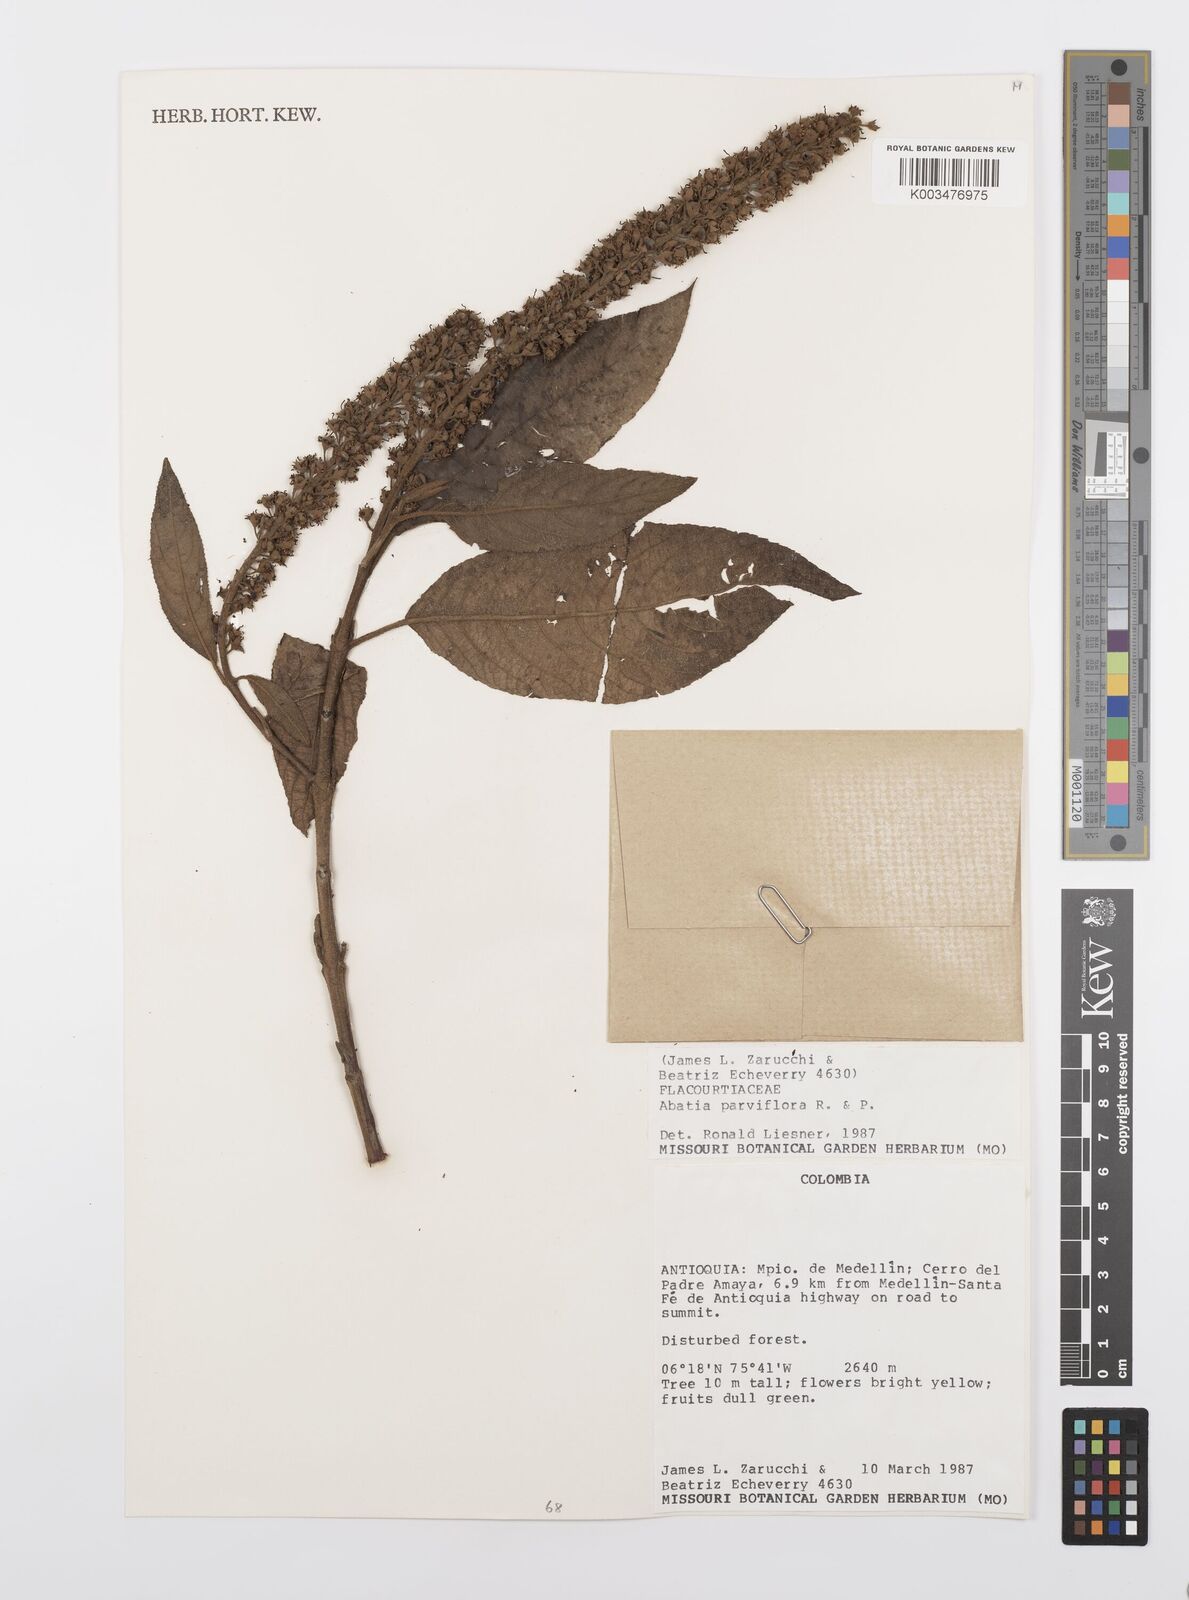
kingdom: Plantae
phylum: Tracheophyta
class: Magnoliopsida
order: Malpighiales
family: Salicaceae
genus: Abatia
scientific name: Abatia parviflora
